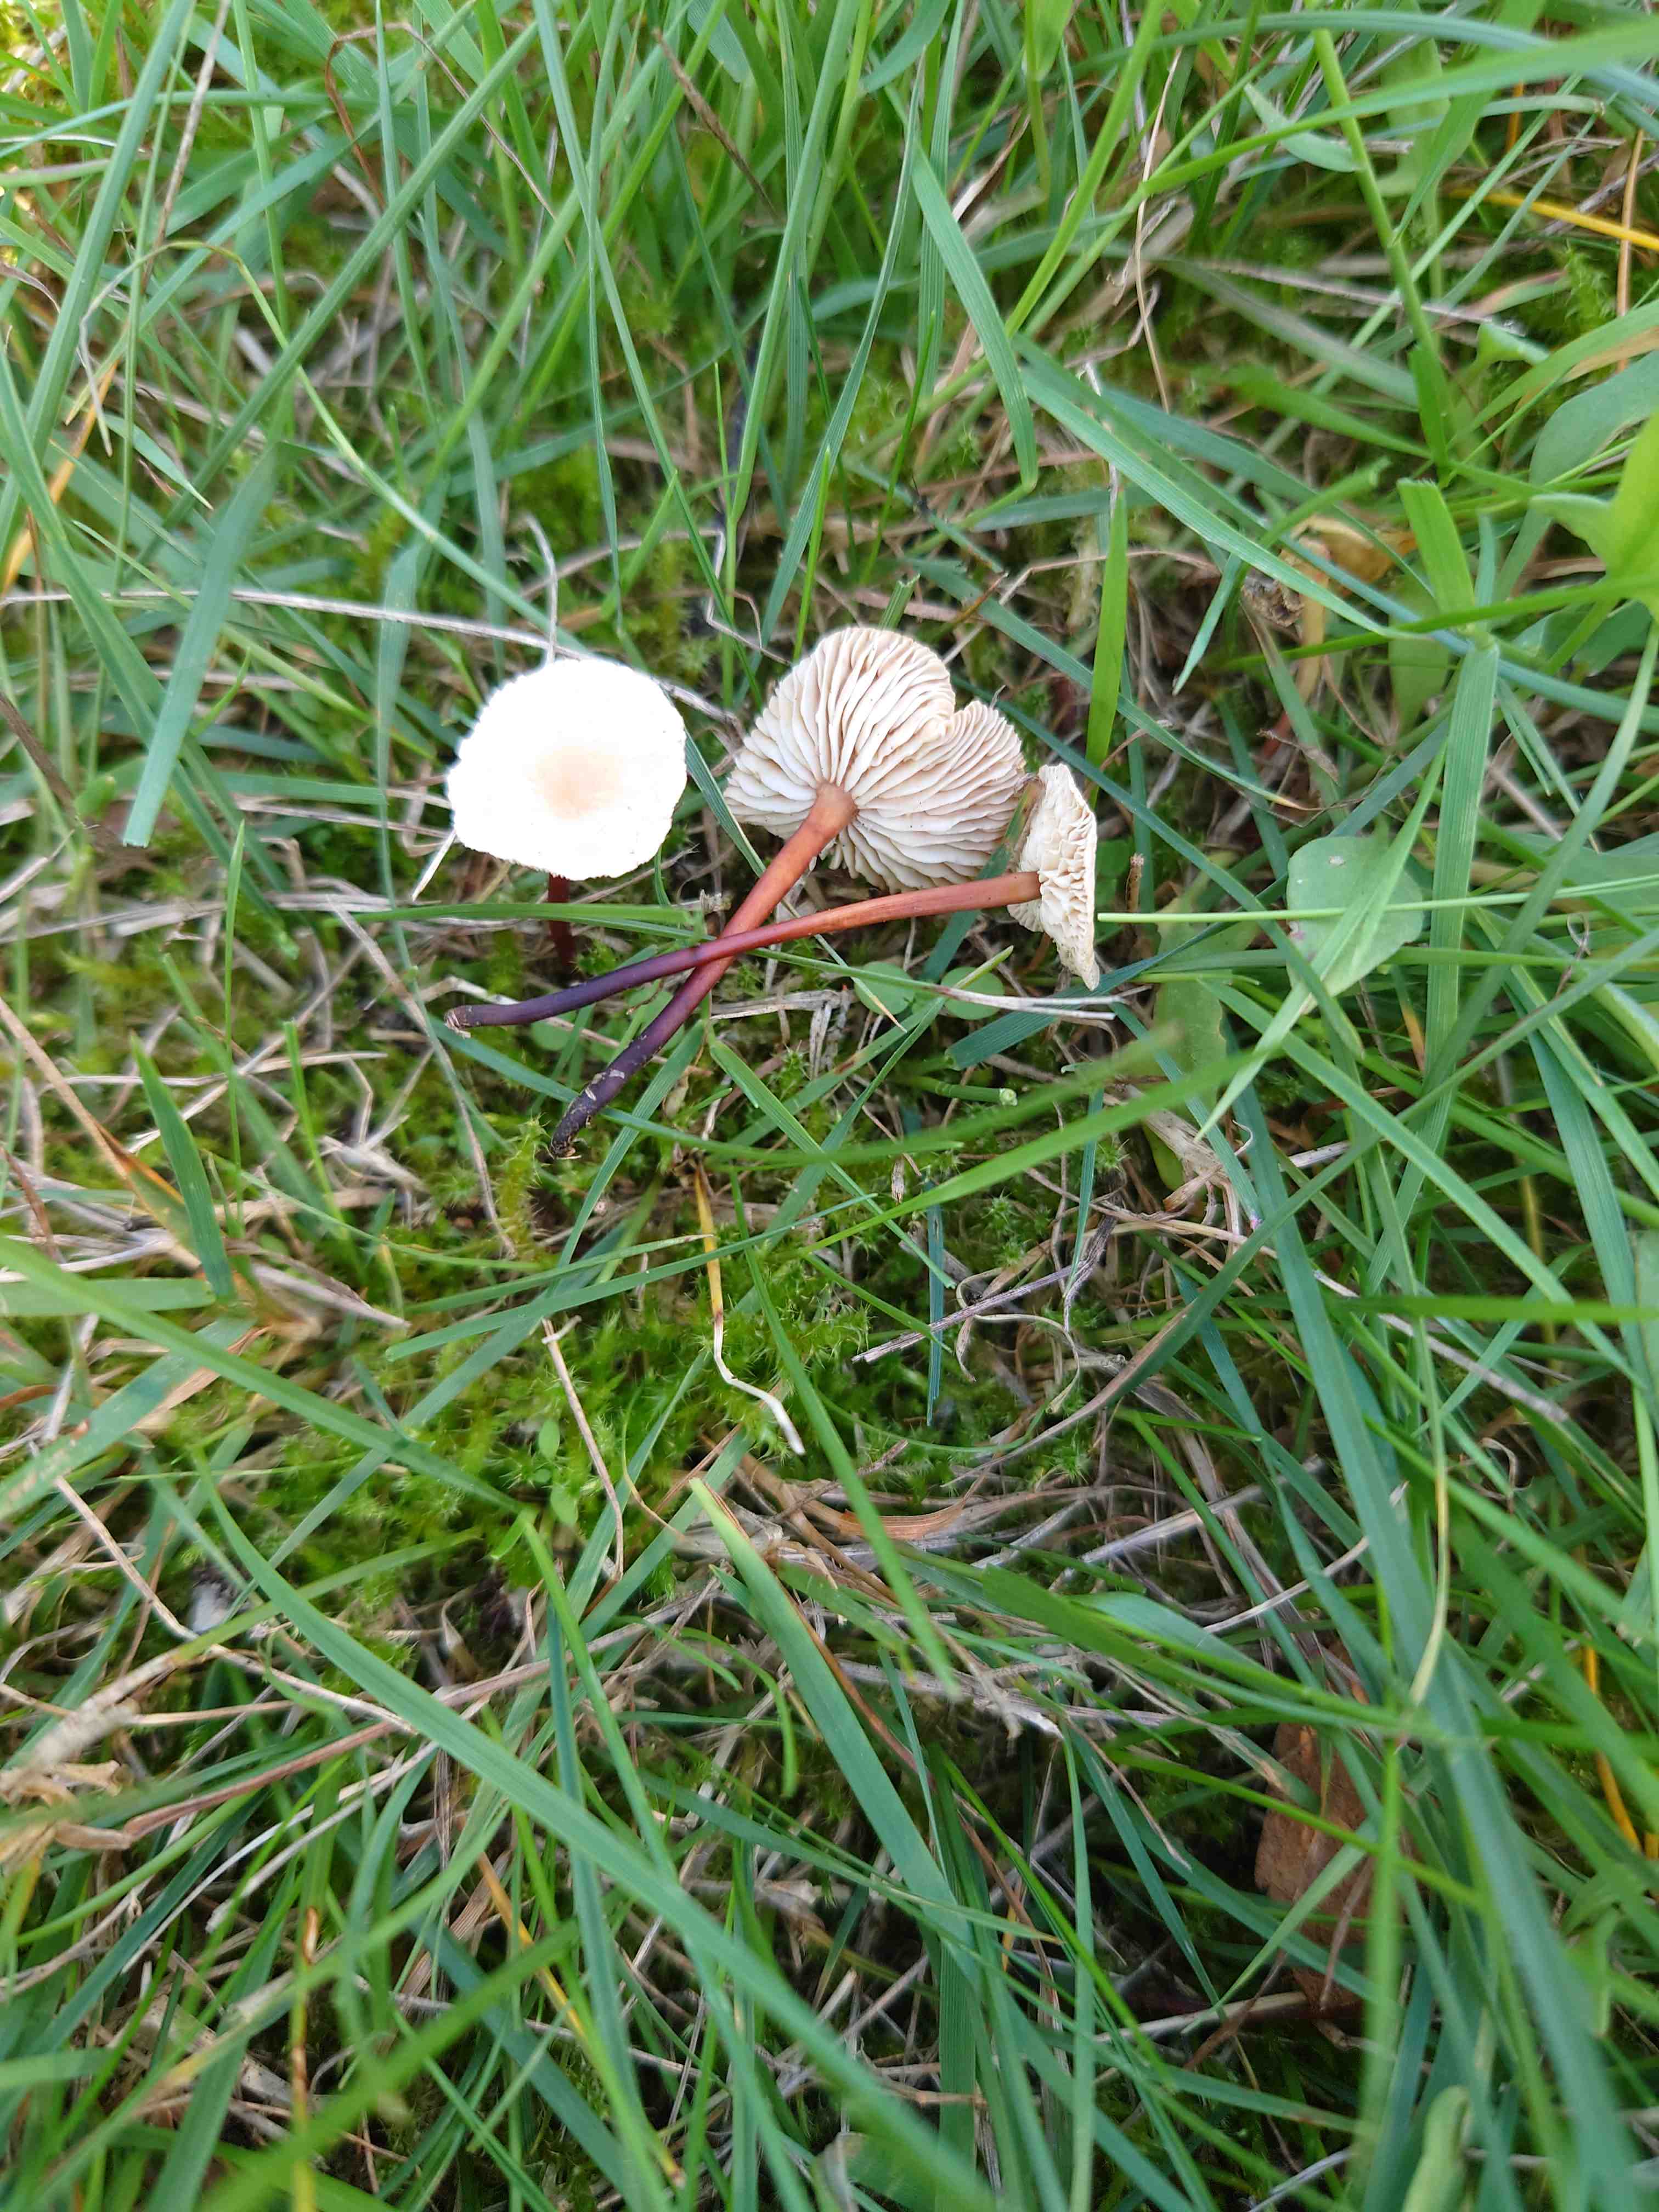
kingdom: Fungi
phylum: Basidiomycota
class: Agaricomycetes
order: Agaricales
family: Omphalotaceae
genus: Mycetinis
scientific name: Mycetinis scorodonius
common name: lille løghat
